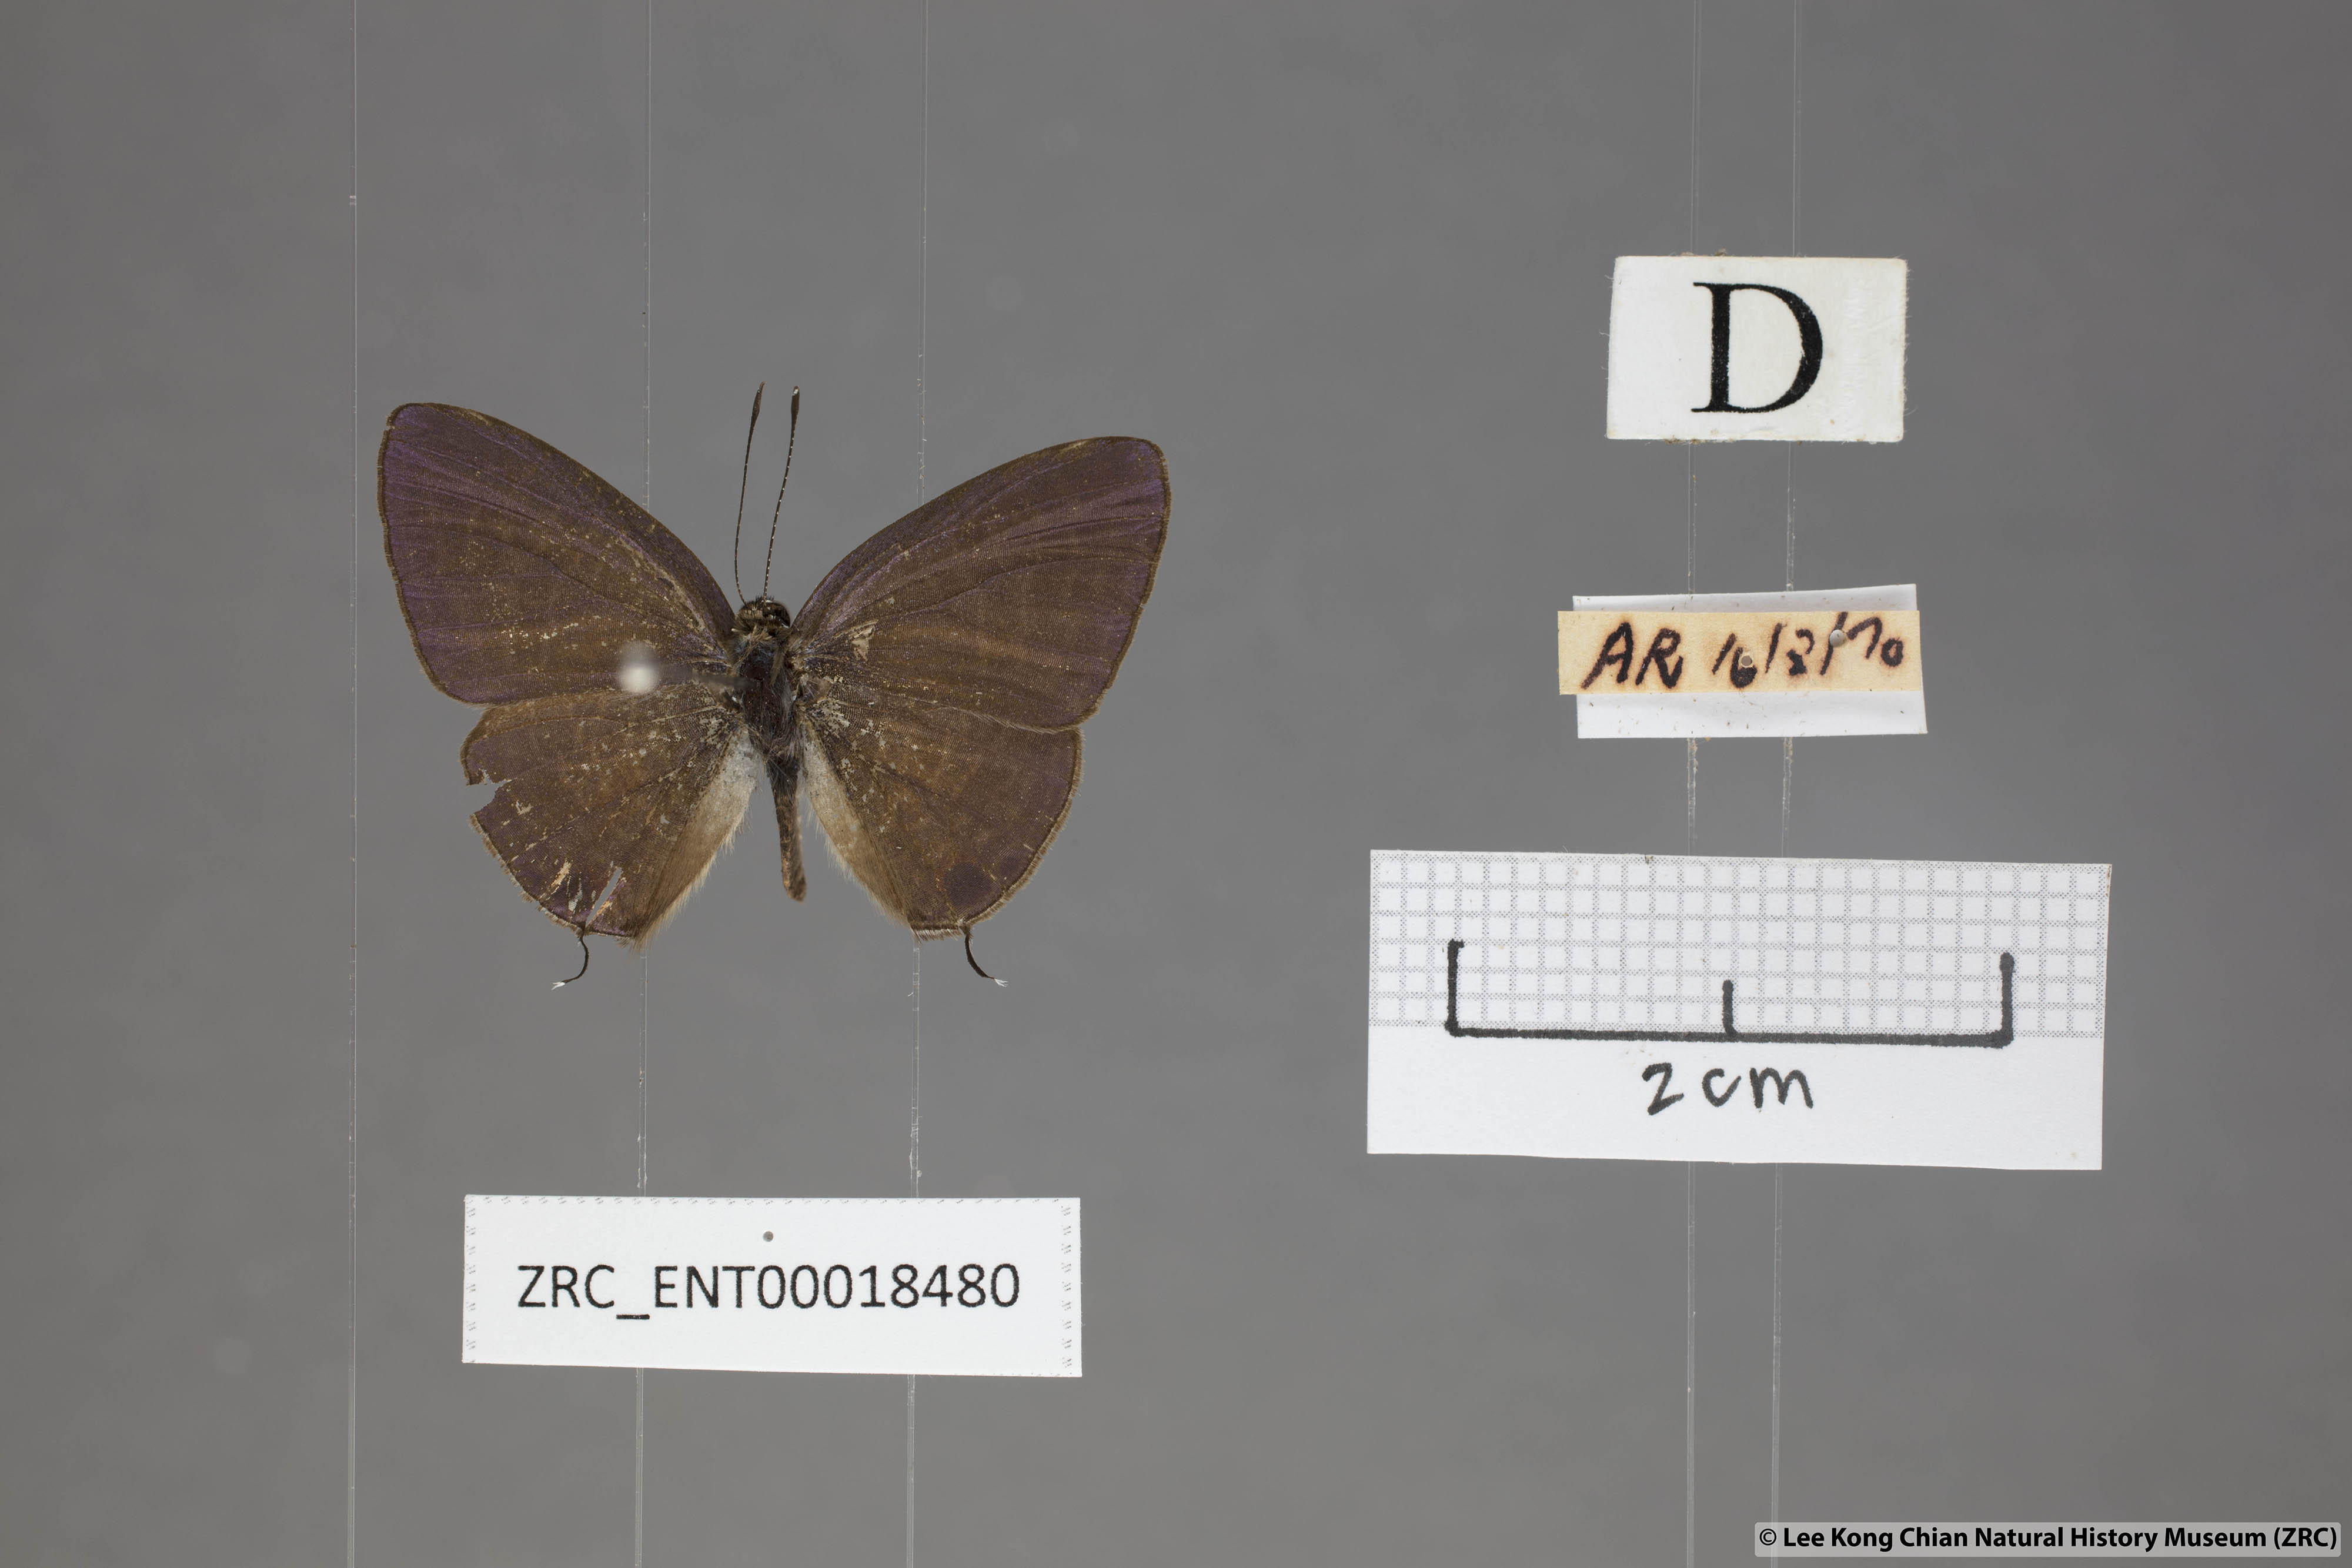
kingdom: Animalia
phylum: Arthropoda
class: Insecta
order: Lepidoptera
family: Lycaenidae
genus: Nacaduba
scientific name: Nacaduba subperusia
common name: Violet fourline blue
